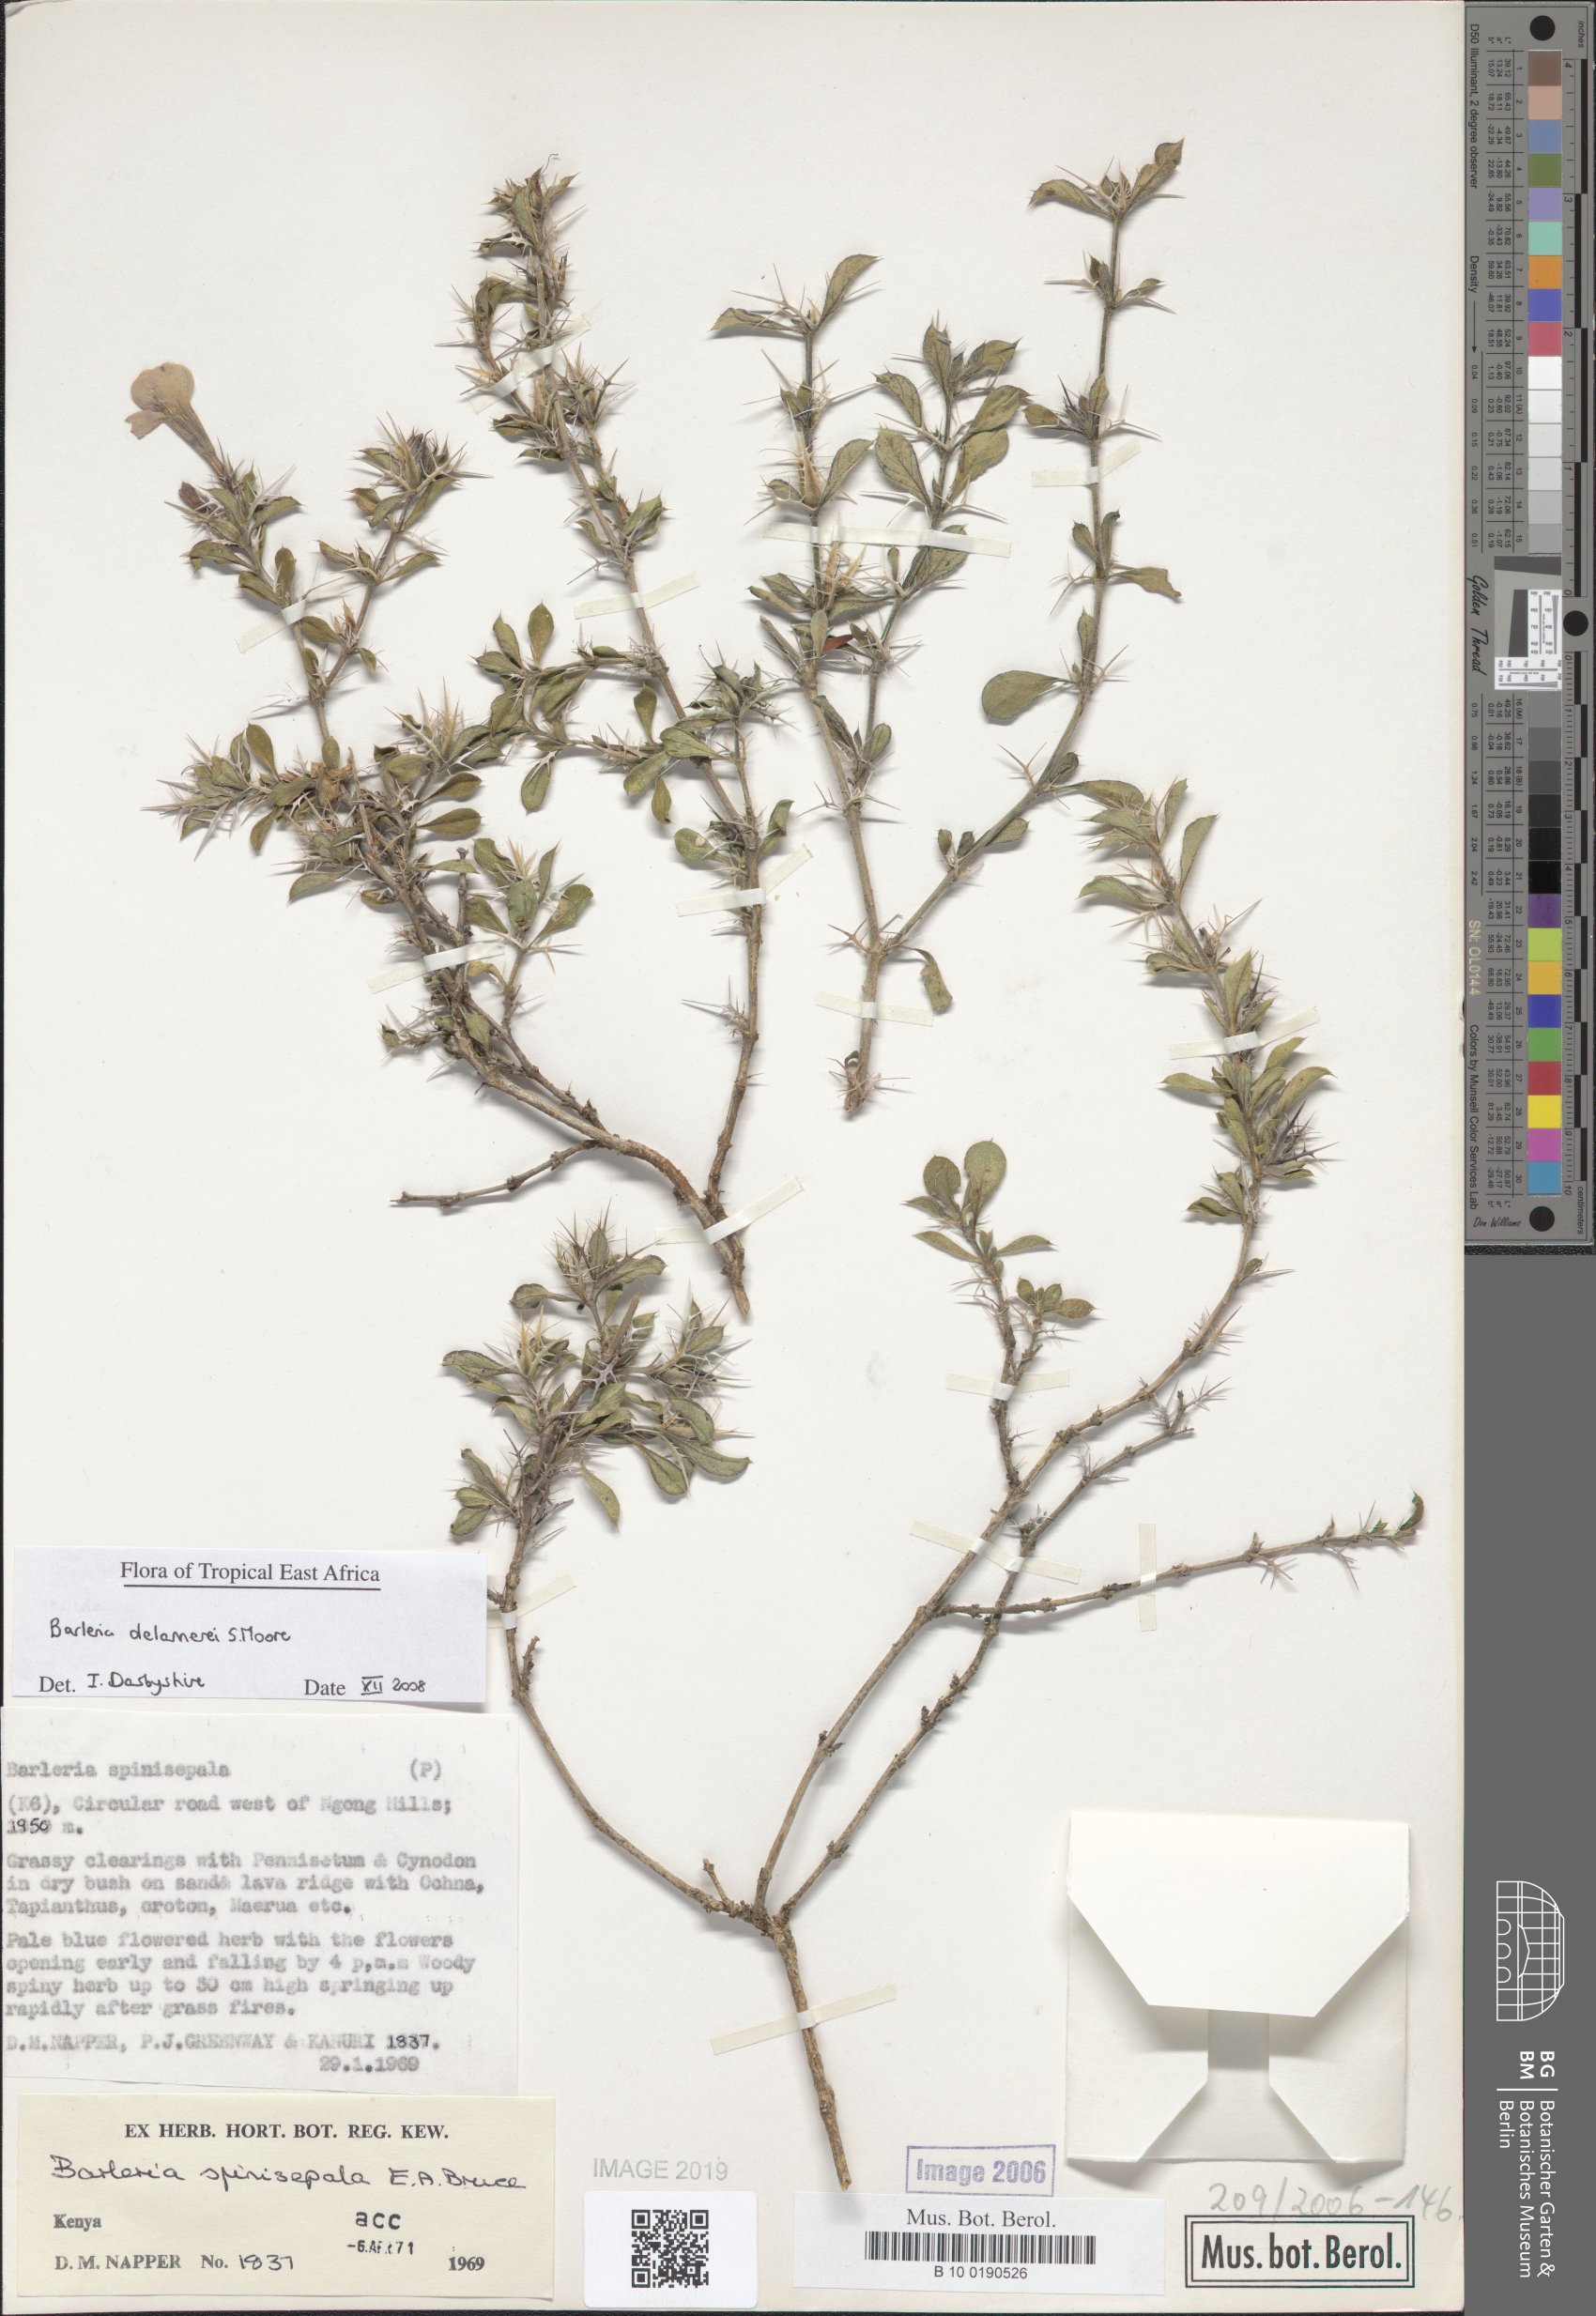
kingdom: Plantae
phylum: Tracheophyta
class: Magnoliopsida
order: Lamiales
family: Acanthaceae
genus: Barleria
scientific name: Barleria delamerei
